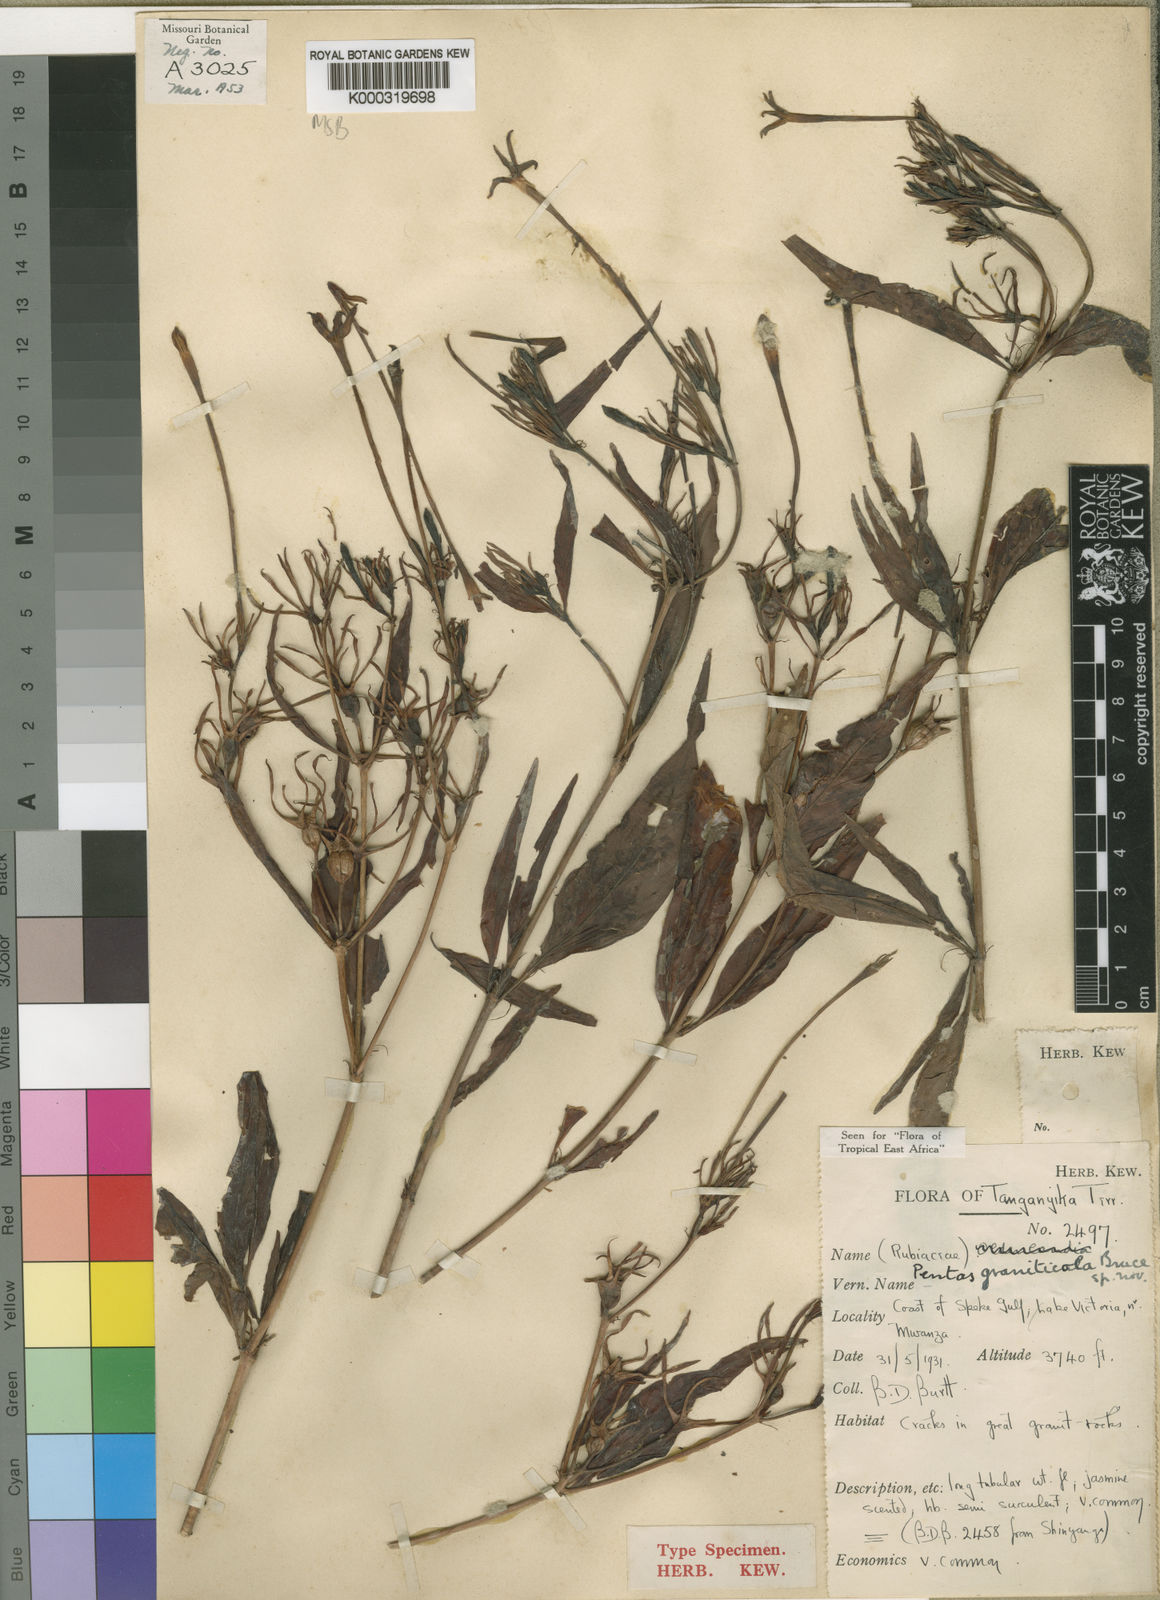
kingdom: Plantae
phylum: Tracheophyta
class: Magnoliopsida
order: Gentianales
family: Rubiaceae
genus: Chamaepentas
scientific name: Chamaepentas graniticola
